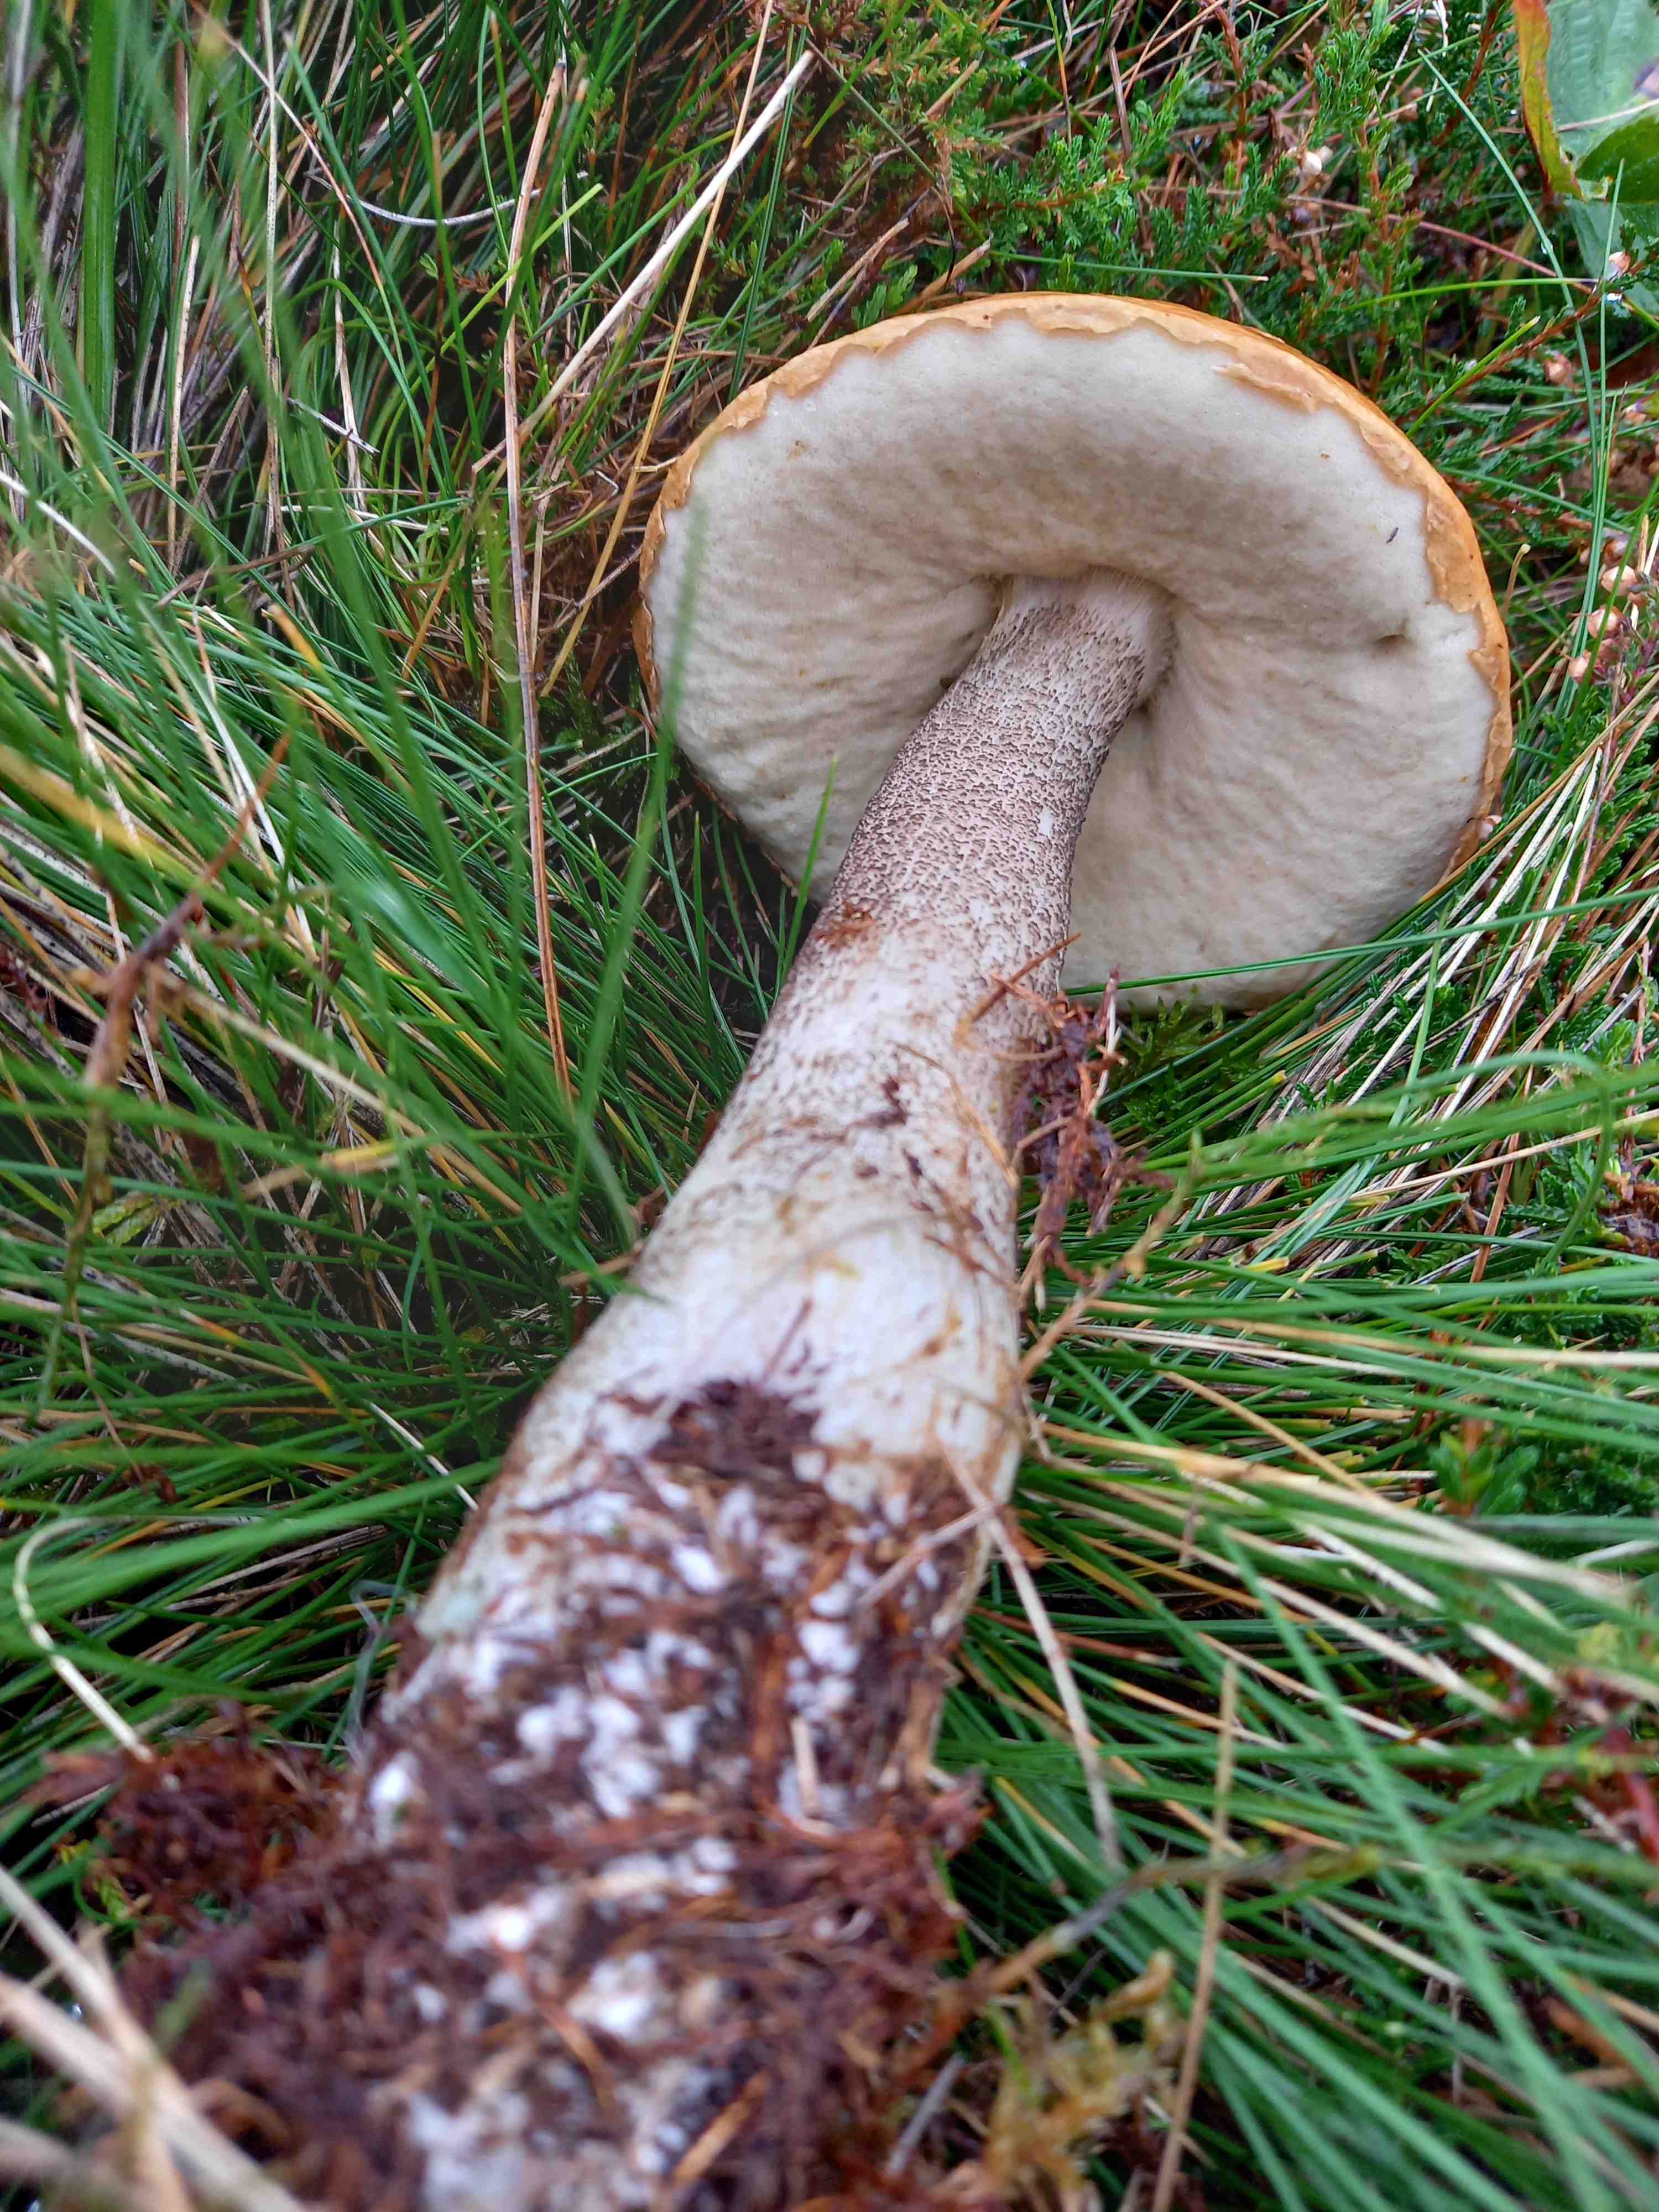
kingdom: Fungi
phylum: Basidiomycota
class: Agaricomycetes
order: Boletales
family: Boletaceae
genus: Leccinum
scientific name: Leccinum versipelle
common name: orange skælrørhat
